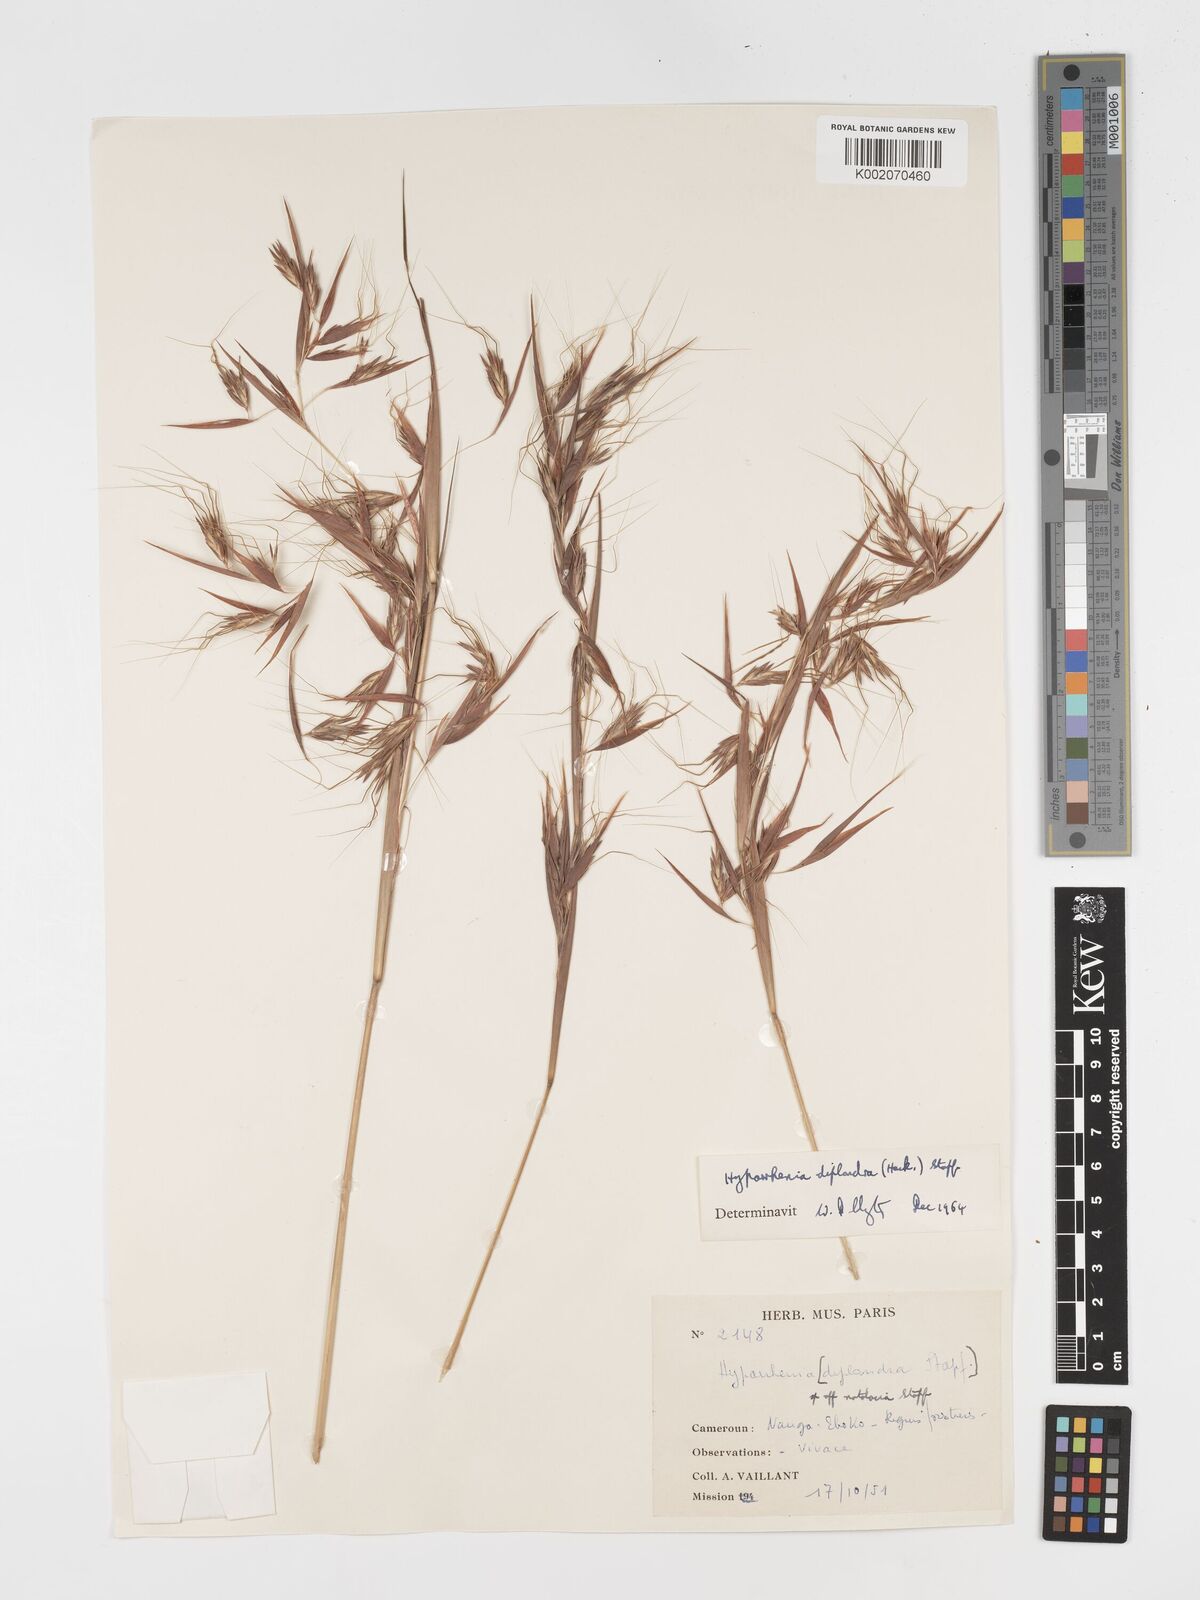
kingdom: Plantae
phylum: Tracheophyta
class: Liliopsida
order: Poales
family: Poaceae
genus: Hyparrhenia
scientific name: Hyparrhenia diplandra
